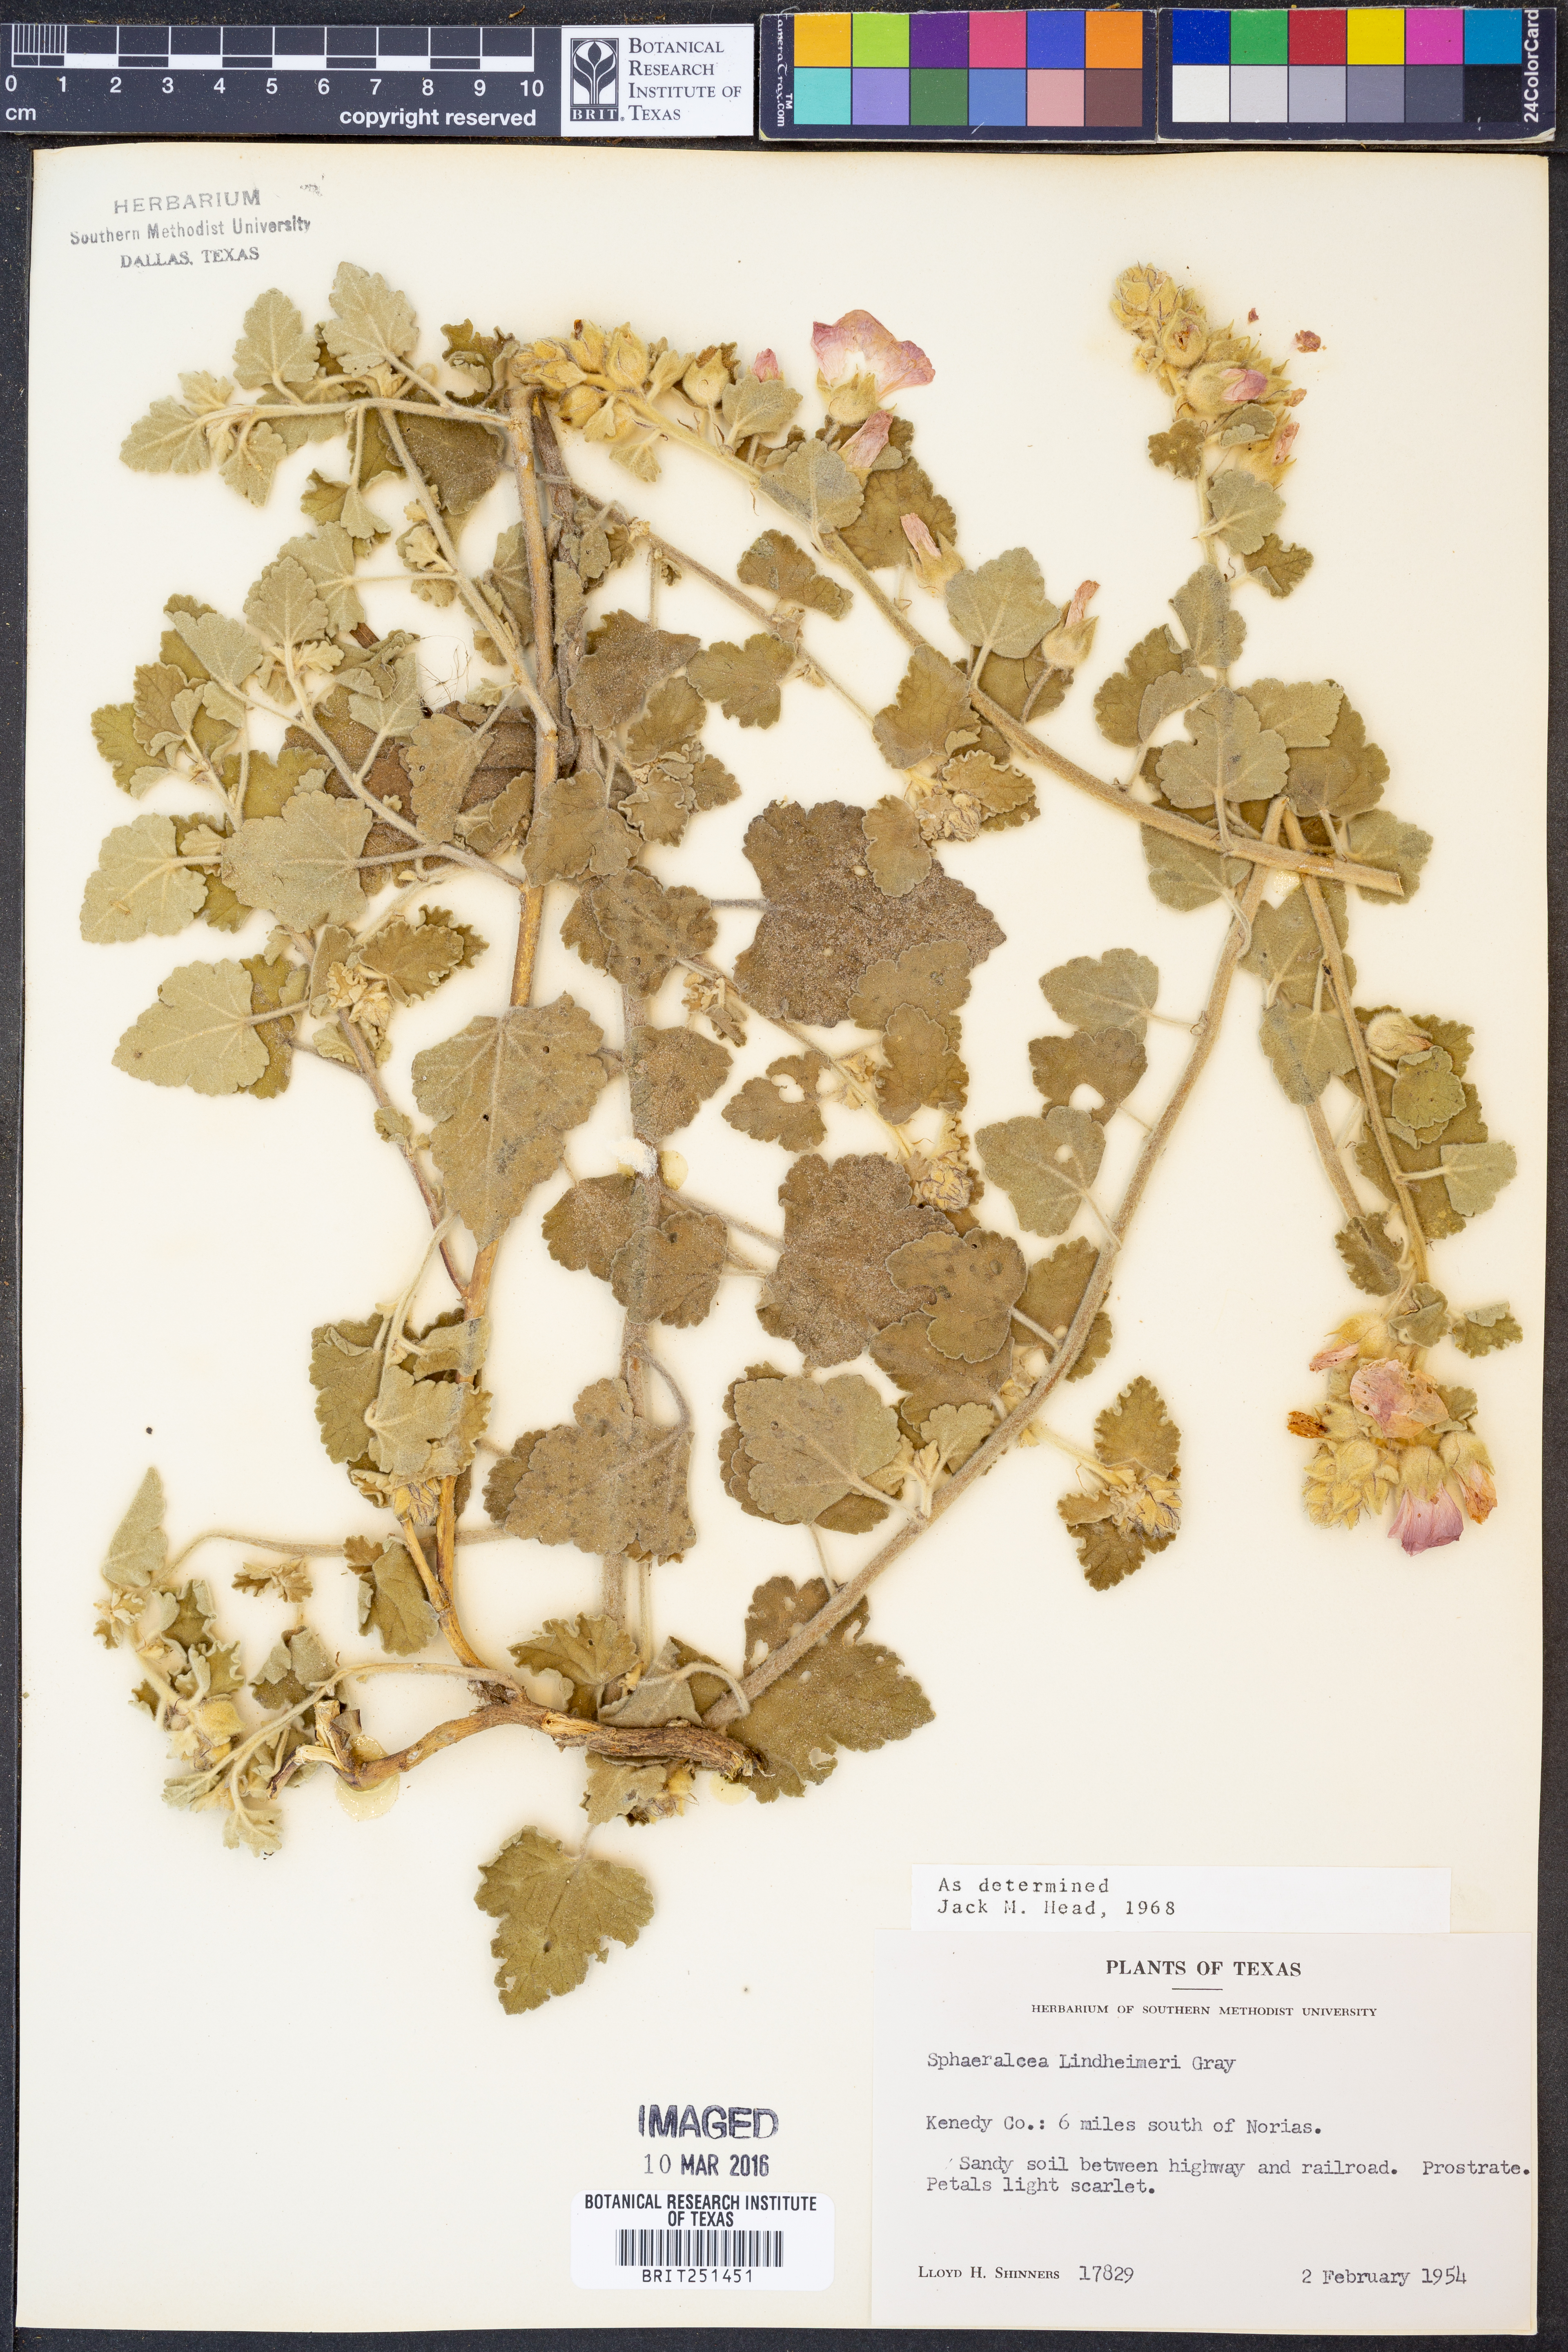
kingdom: Plantae
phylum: Tracheophyta
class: Magnoliopsida
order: Malvales
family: Malvaceae
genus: Sphaeralcea
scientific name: Sphaeralcea lindheimeri
